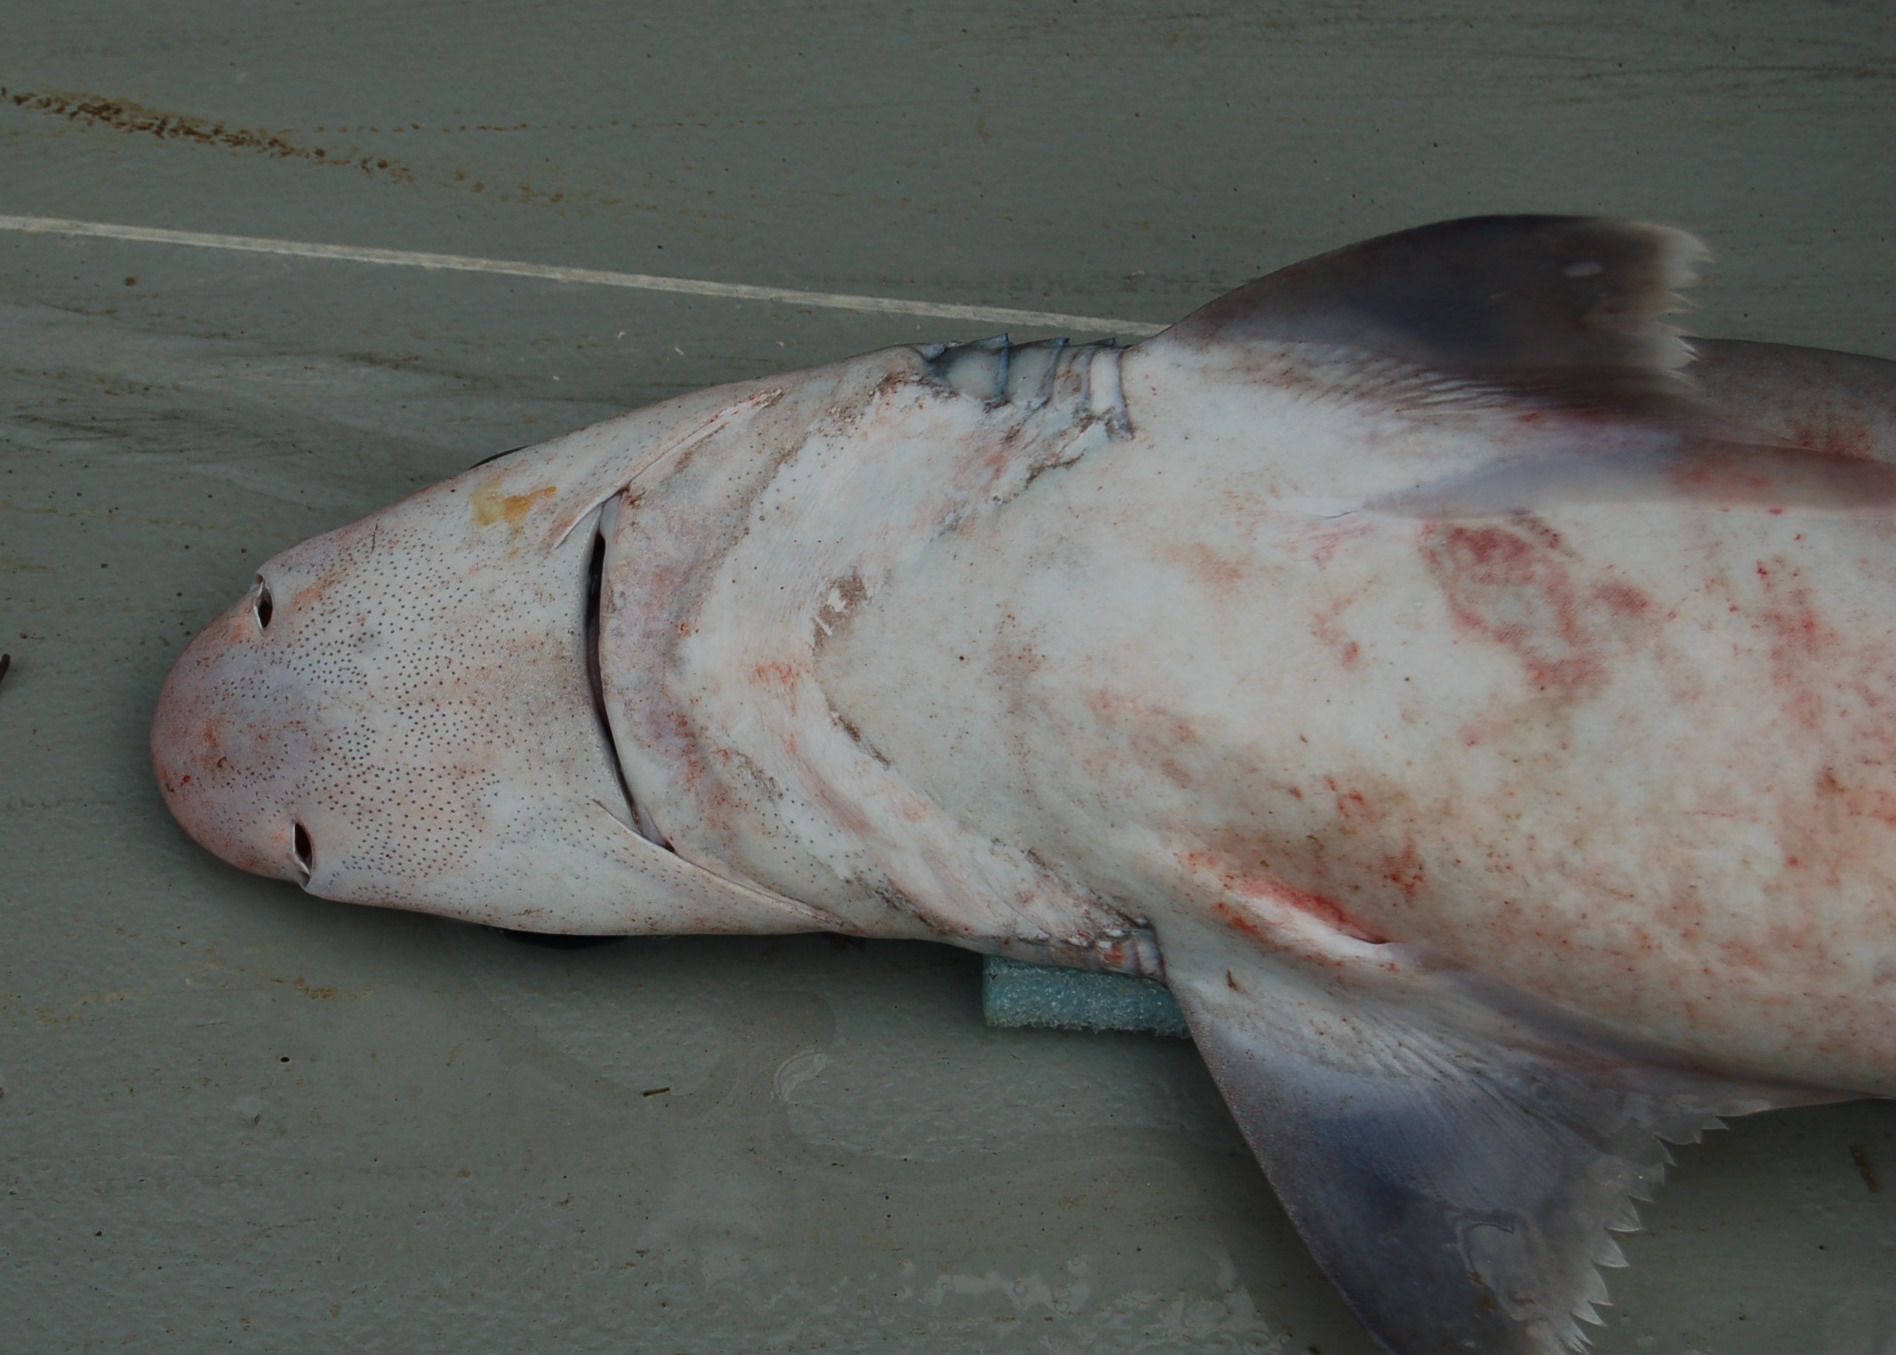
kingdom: Animalia
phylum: Chordata
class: Elasmobranchii
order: Squaliformes
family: Centrophoridae
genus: Centrophorus
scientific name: Centrophorus moluccensis
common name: Smallfin gulper shark
